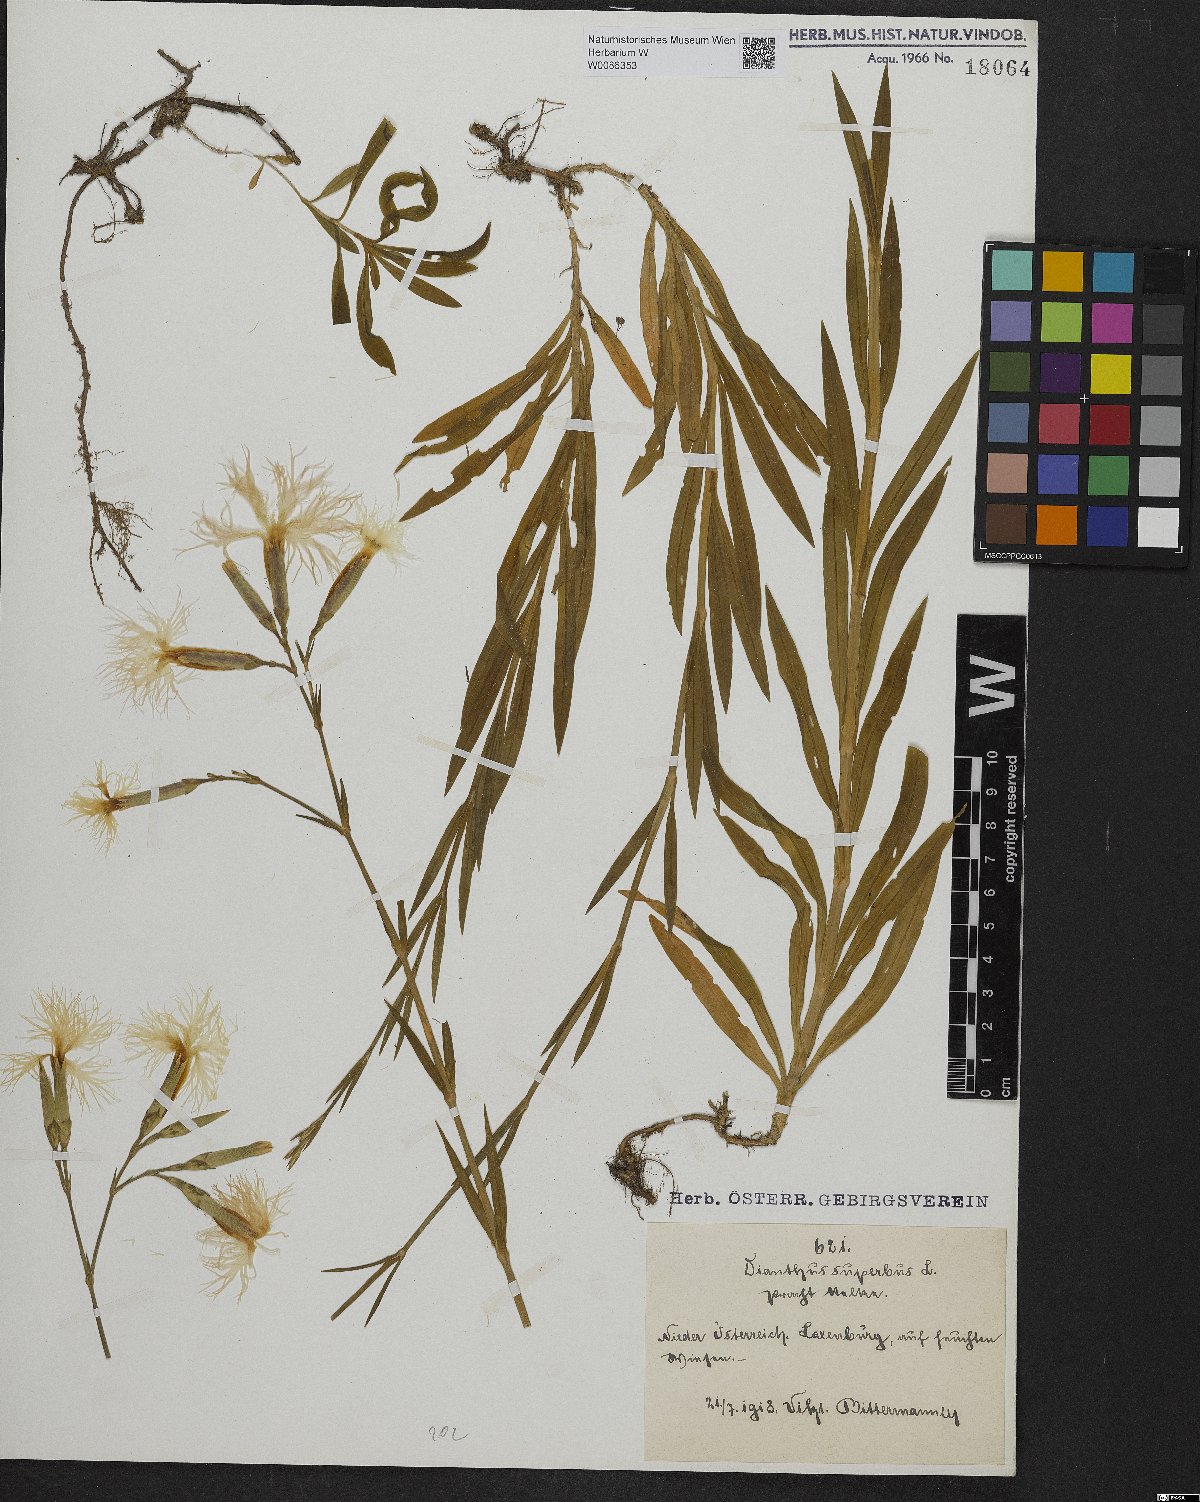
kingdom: Plantae
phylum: Tracheophyta
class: Magnoliopsida
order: Caryophyllales
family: Caryophyllaceae
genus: Dianthus
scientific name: Dianthus superbus
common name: Fringed pink
